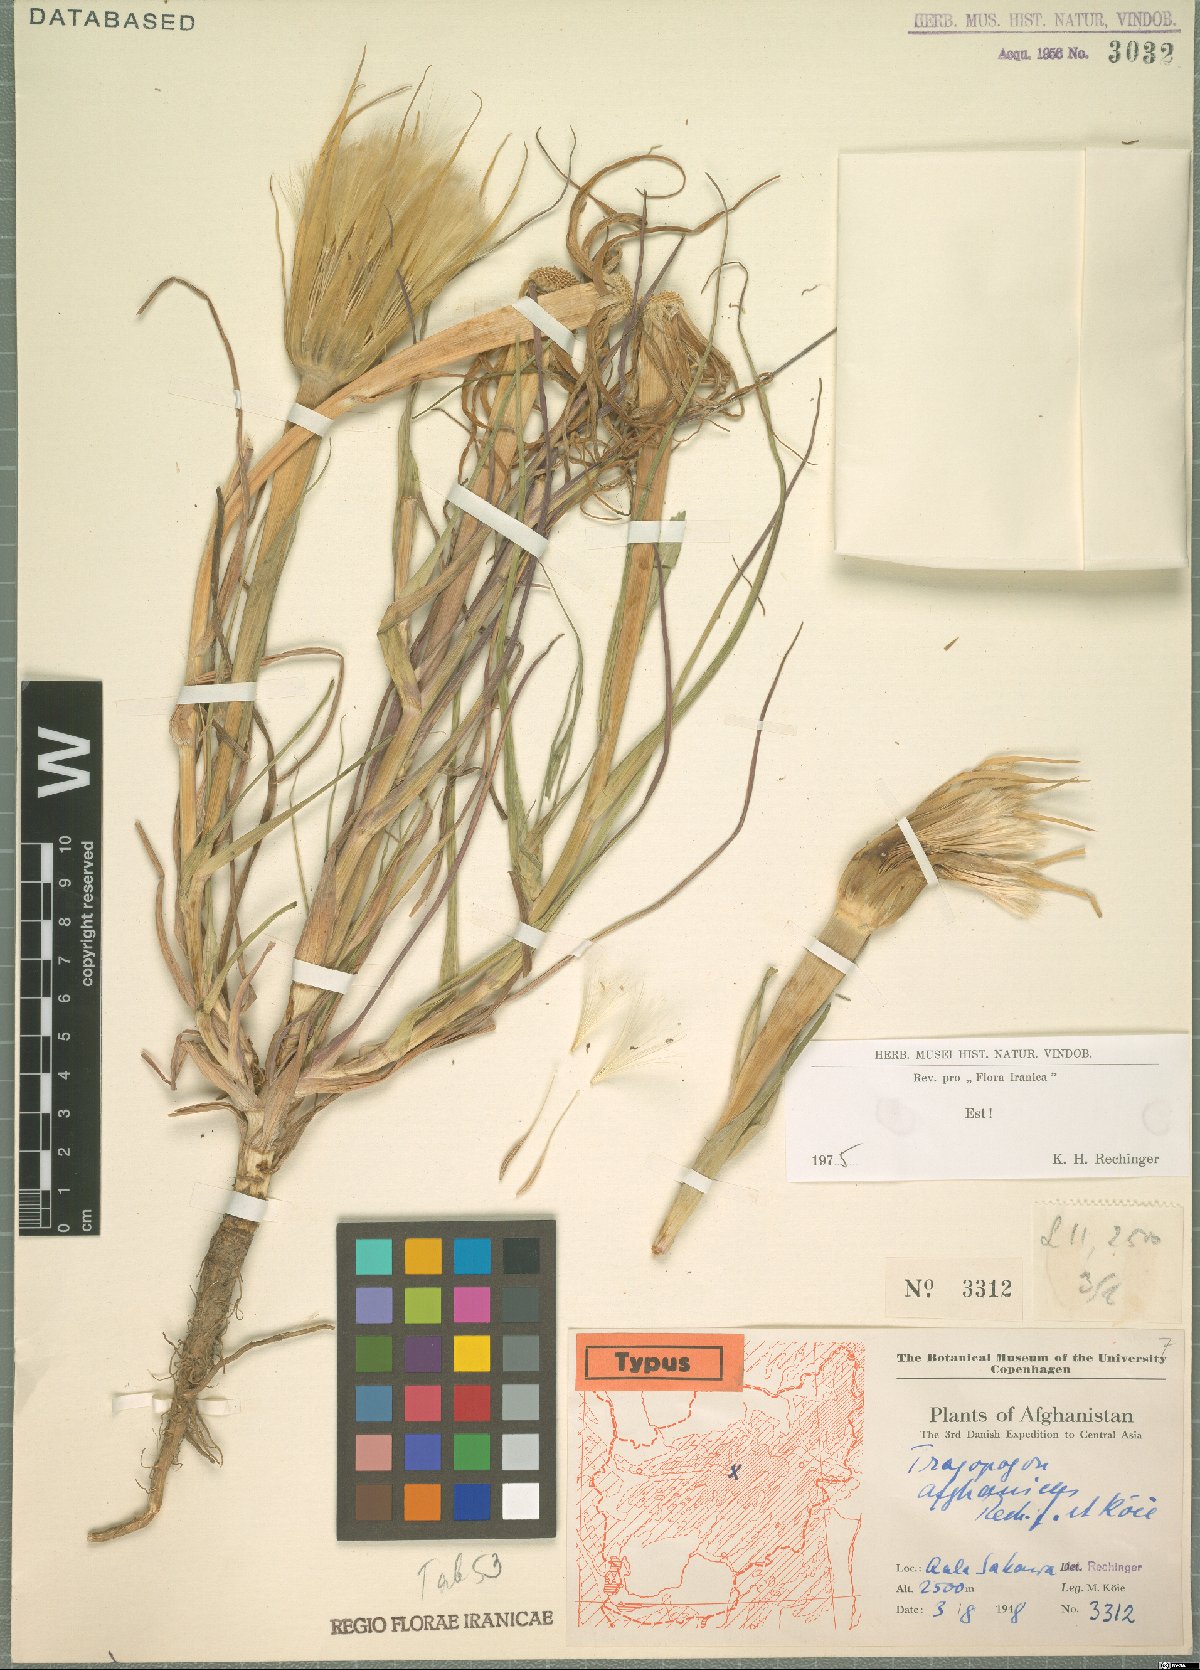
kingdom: Plantae
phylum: Tracheophyta
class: Magnoliopsida
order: Asterales
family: Asteraceae
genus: Tragopogon
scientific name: Tragopogon dubius
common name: Yellow salsify
